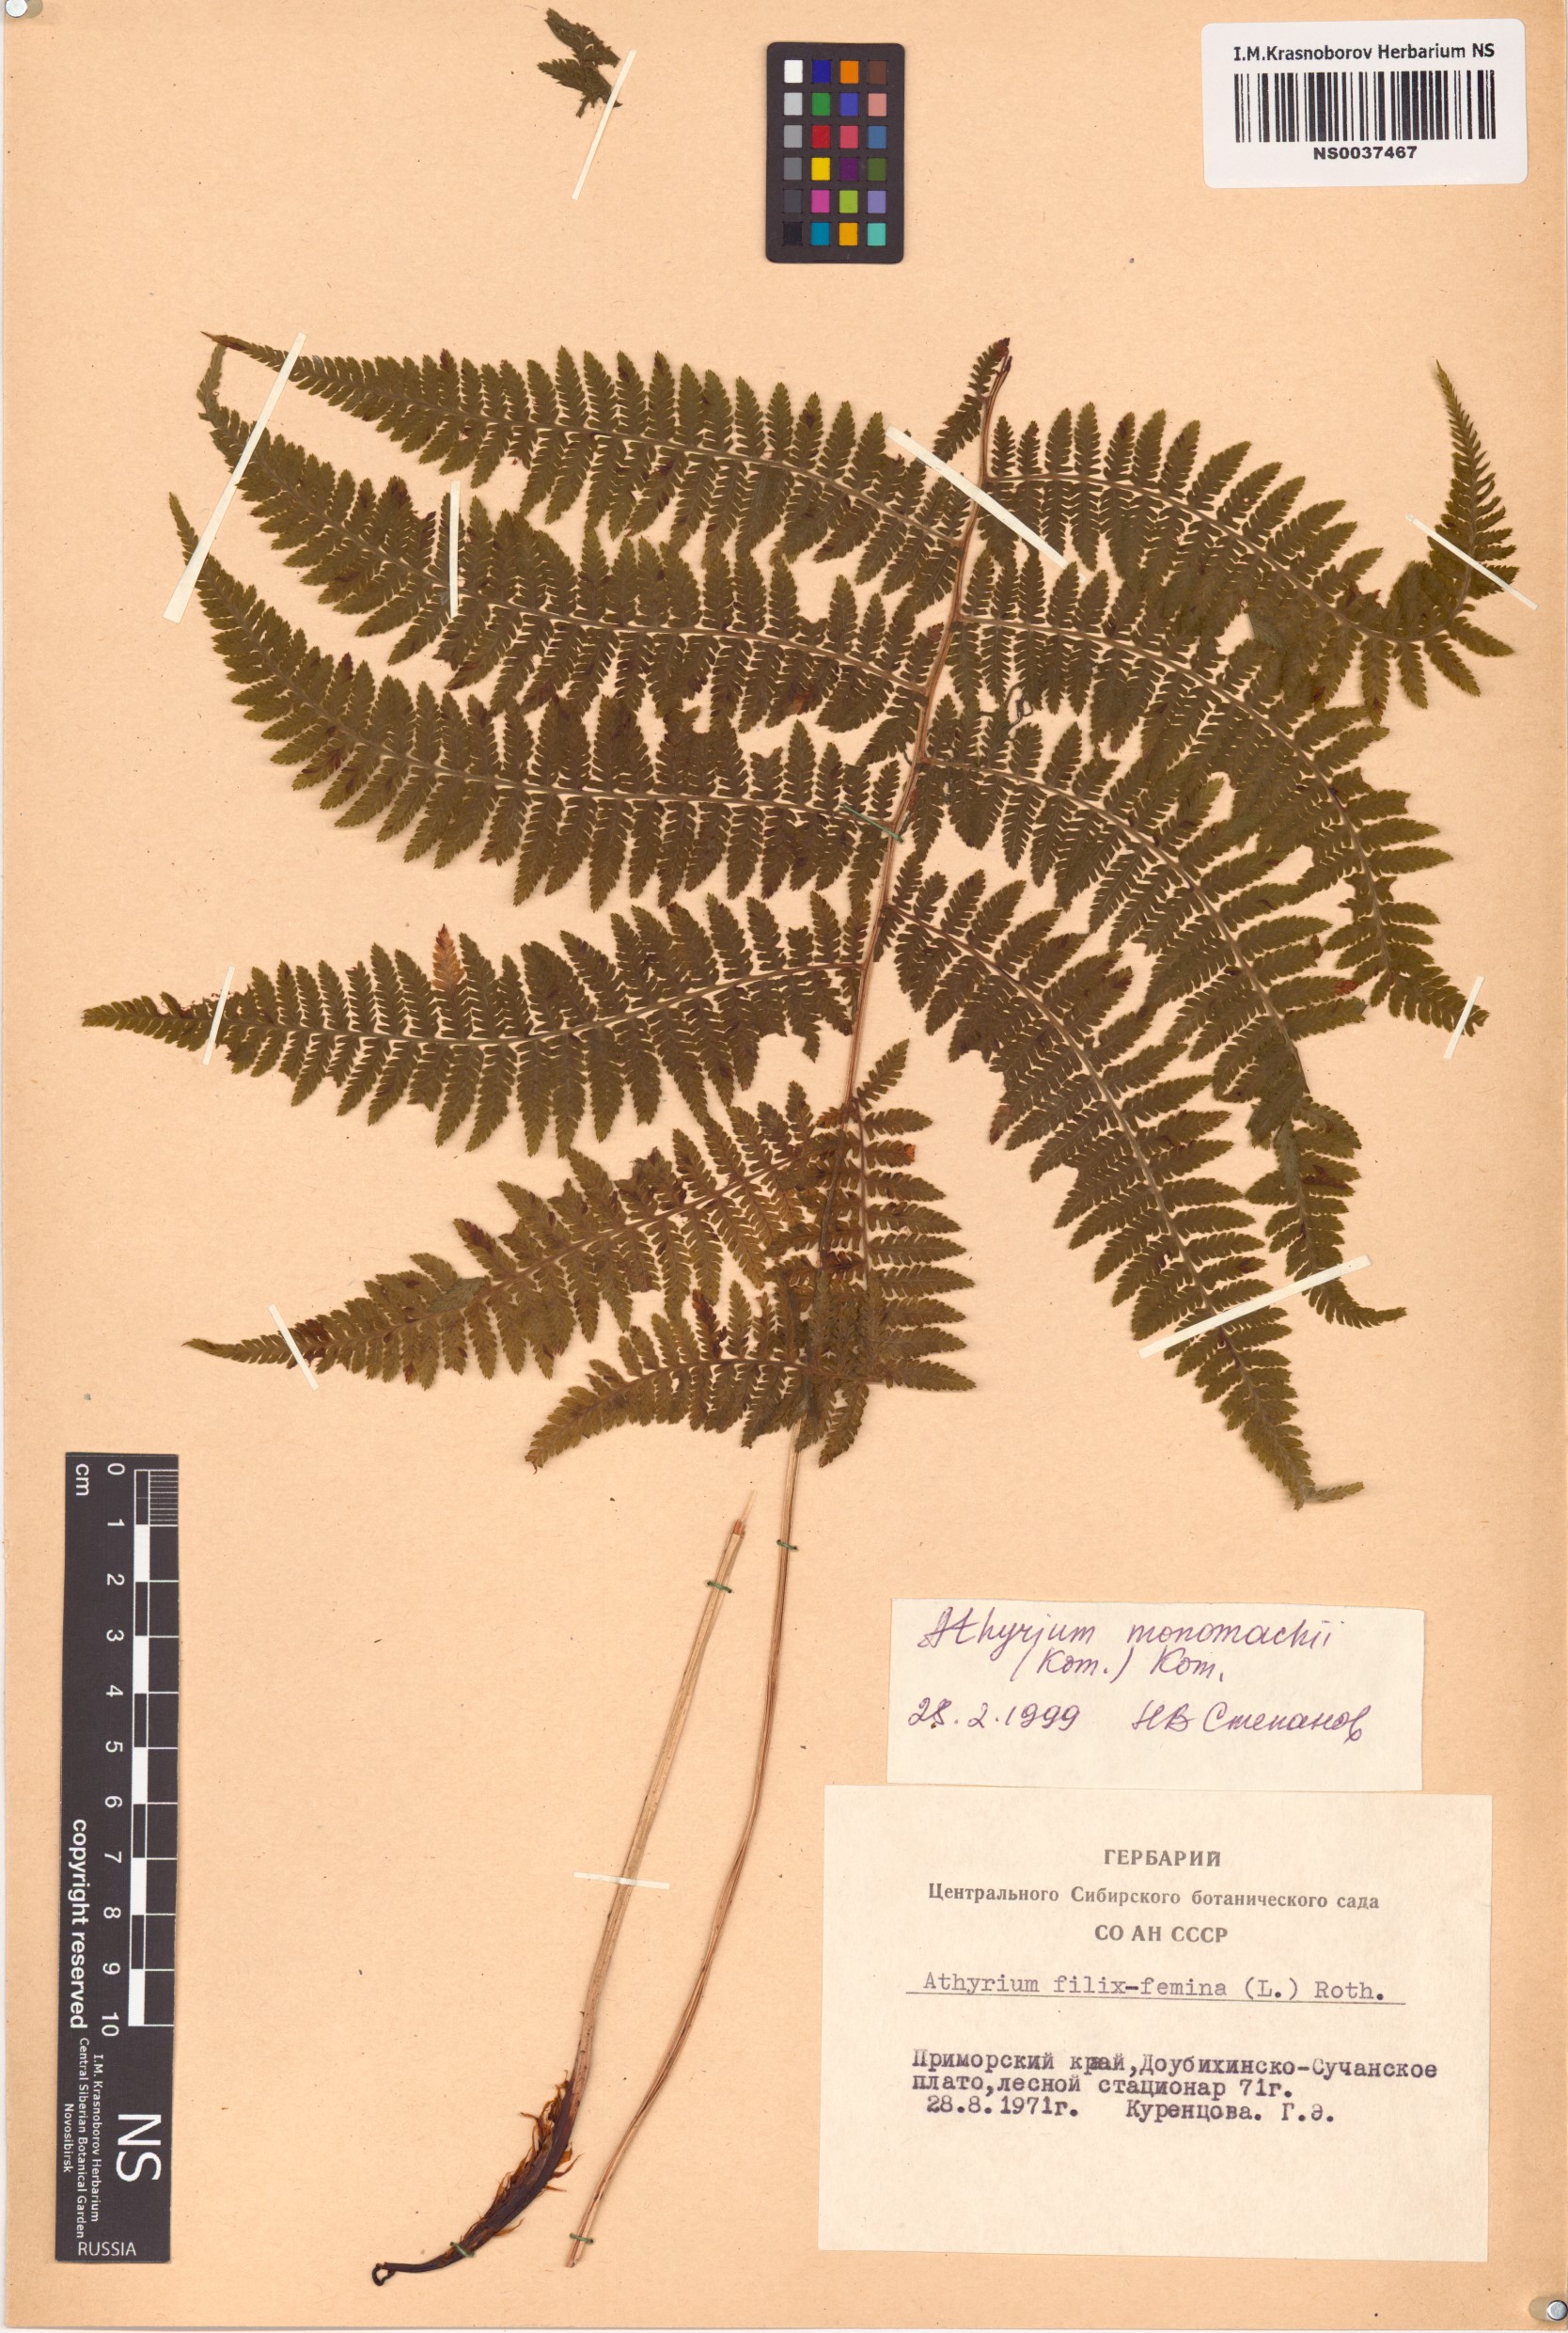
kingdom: Plantae
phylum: Tracheophyta
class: Polypodiopsida
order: Polypodiales
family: Athyriaceae
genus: Athyrium
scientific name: Athyrium monomachii
